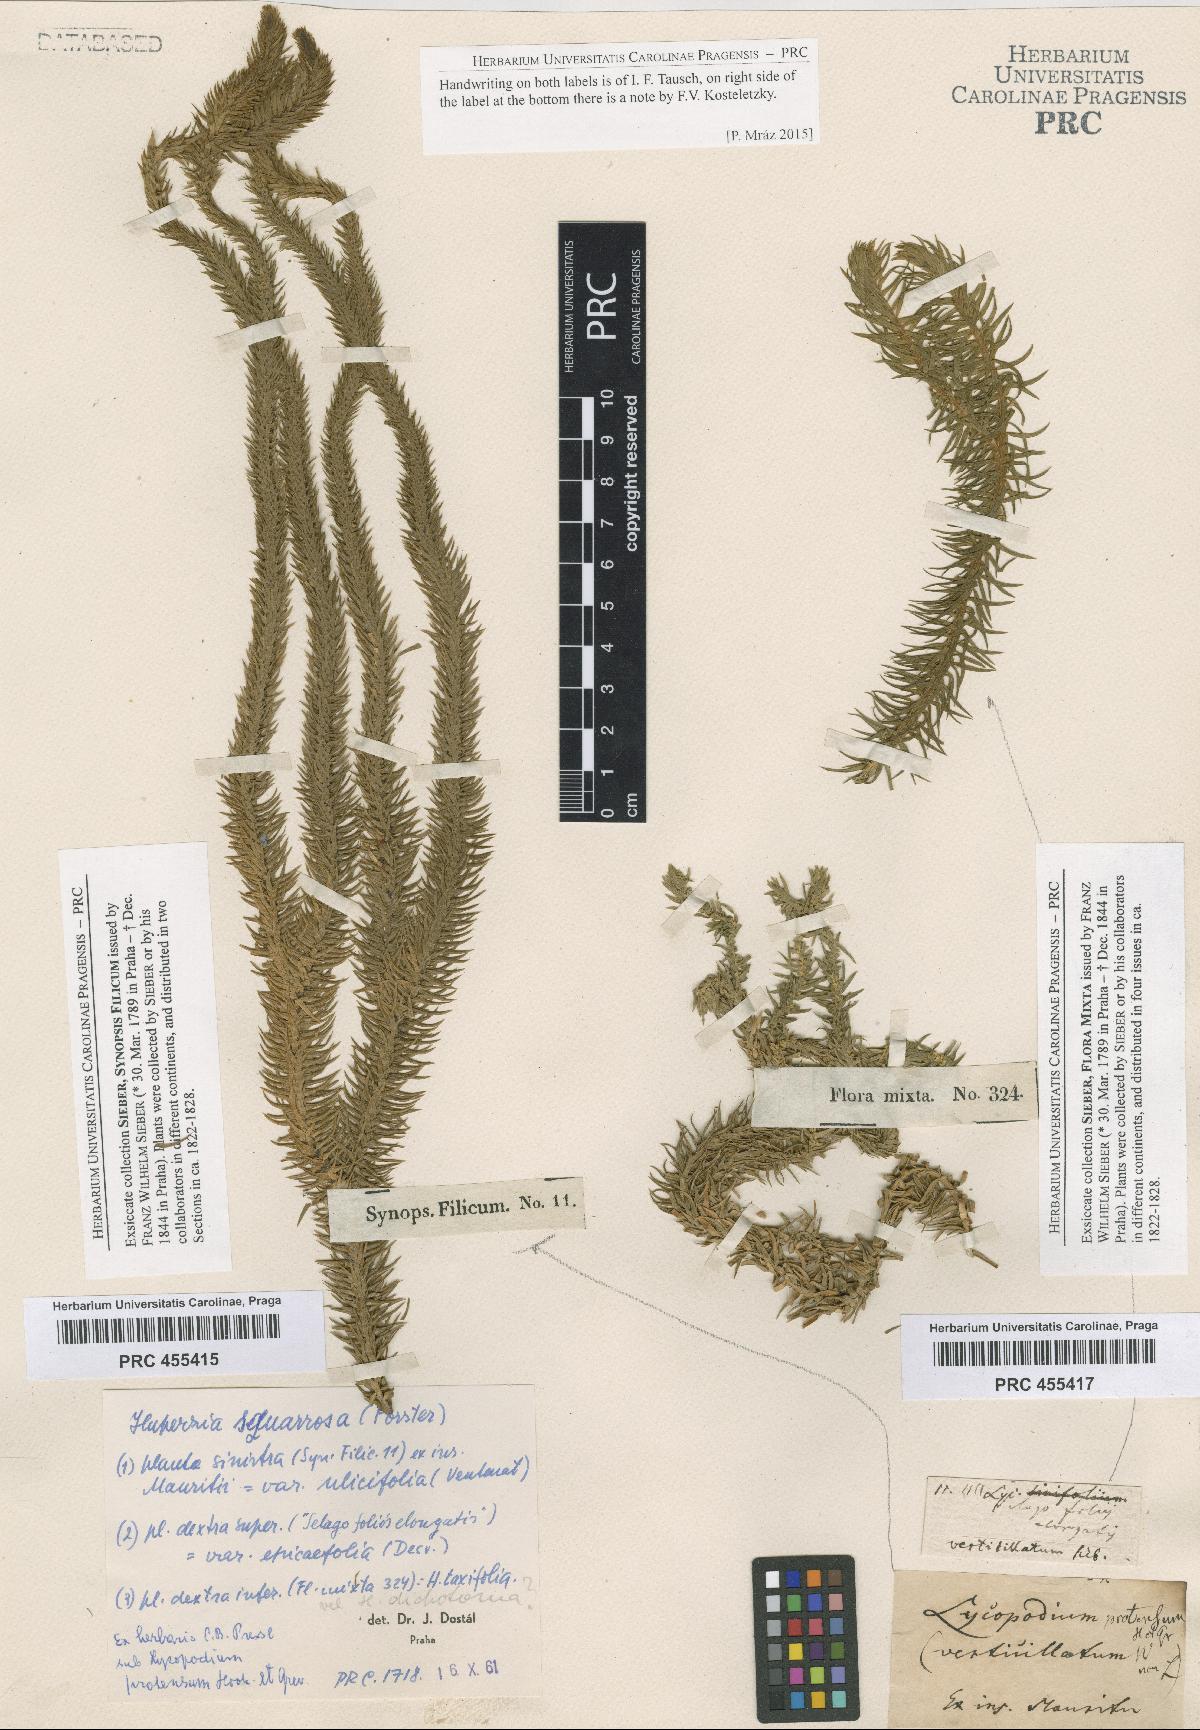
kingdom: Plantae
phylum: Tracheophyta
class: Lycopodiopsida
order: Lycopodiales
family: Lycopodiaceae
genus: Phlegmariurus
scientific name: Phlegmariurus verticillatus
